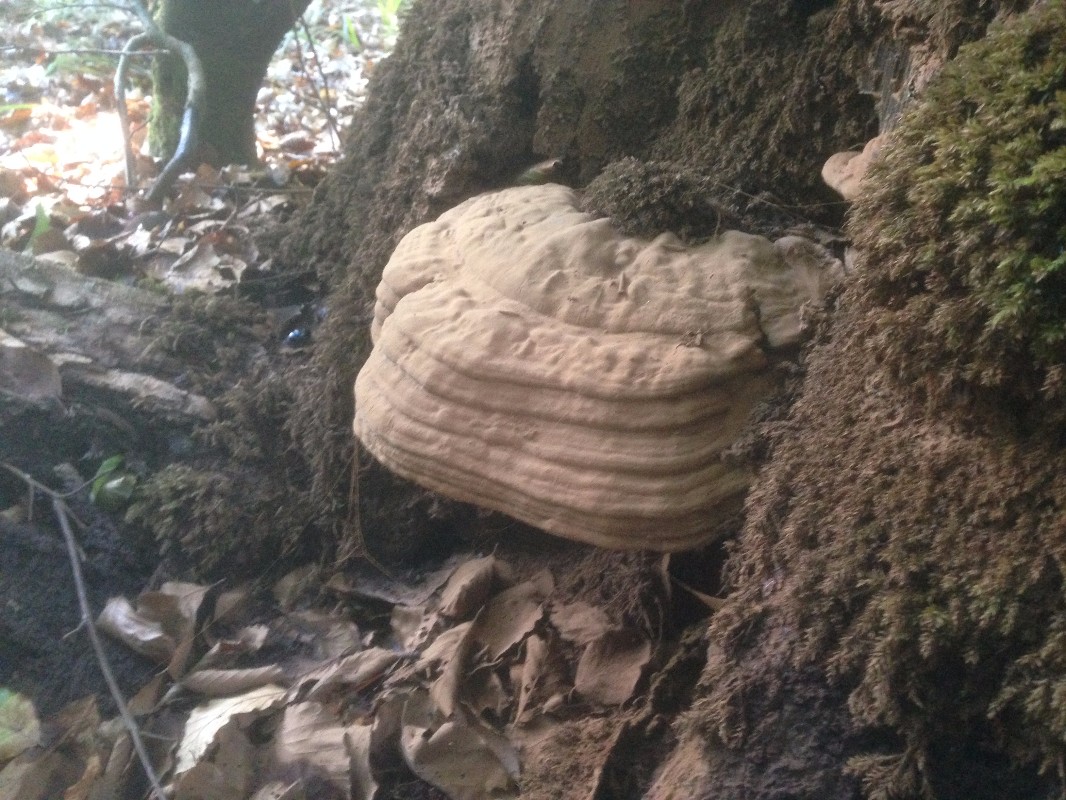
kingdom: Fungi
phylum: Basidiomycota
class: Agaricomycetes
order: Polyporales
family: Polyporaceae
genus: Ganoderma
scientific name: Ganoderma applanatum
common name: flad lakporesvamp
